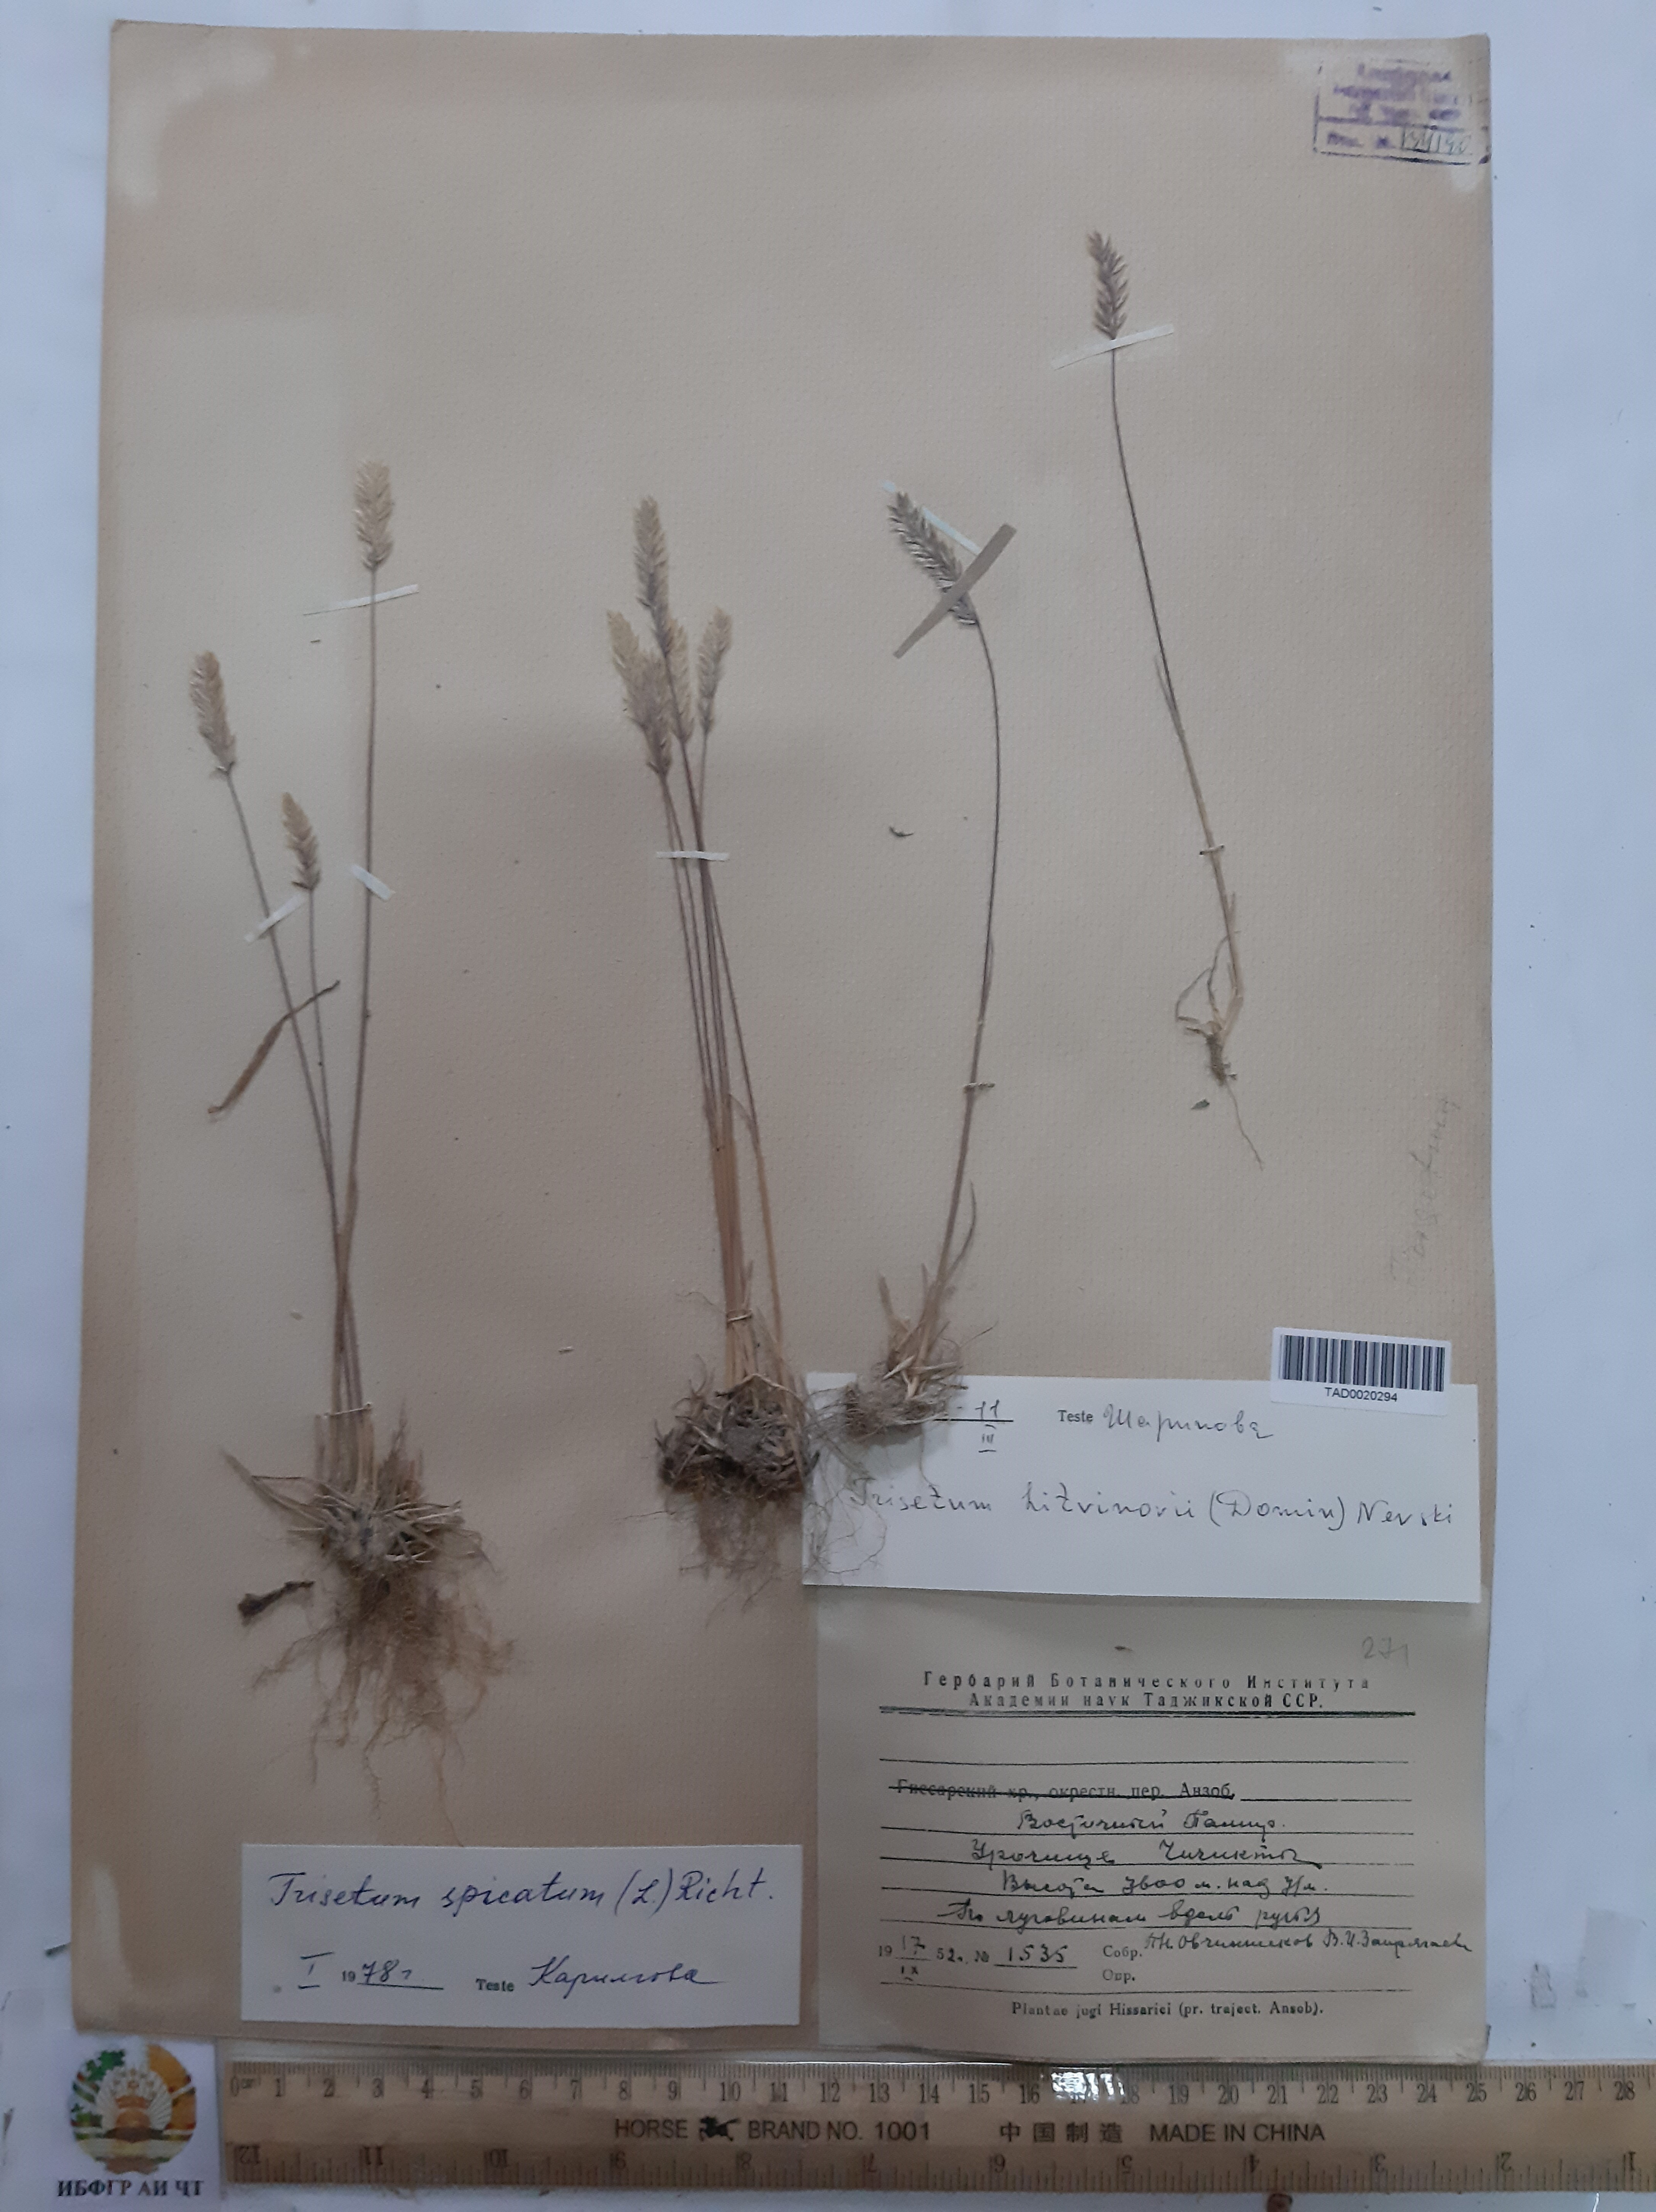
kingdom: Plantae
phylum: Tracheophyta
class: Liliopsida
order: Poales
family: Poaceae
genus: Koeleria
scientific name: Koeleria spicata
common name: Mountain trisetum
